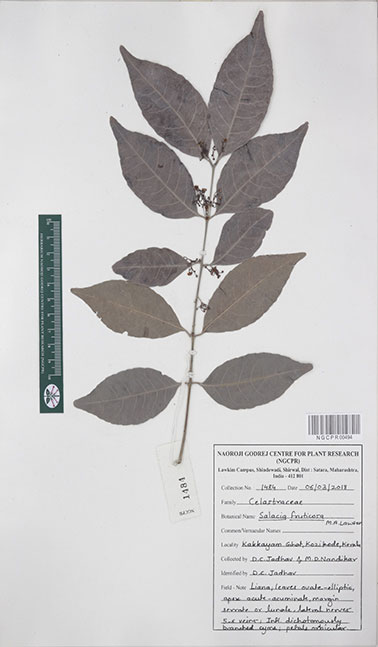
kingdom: Plantae
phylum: Tracheophyta
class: Magnoliopsida
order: Celastrales
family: Celastraceae
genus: Salacia
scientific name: Salacia fruticosa
